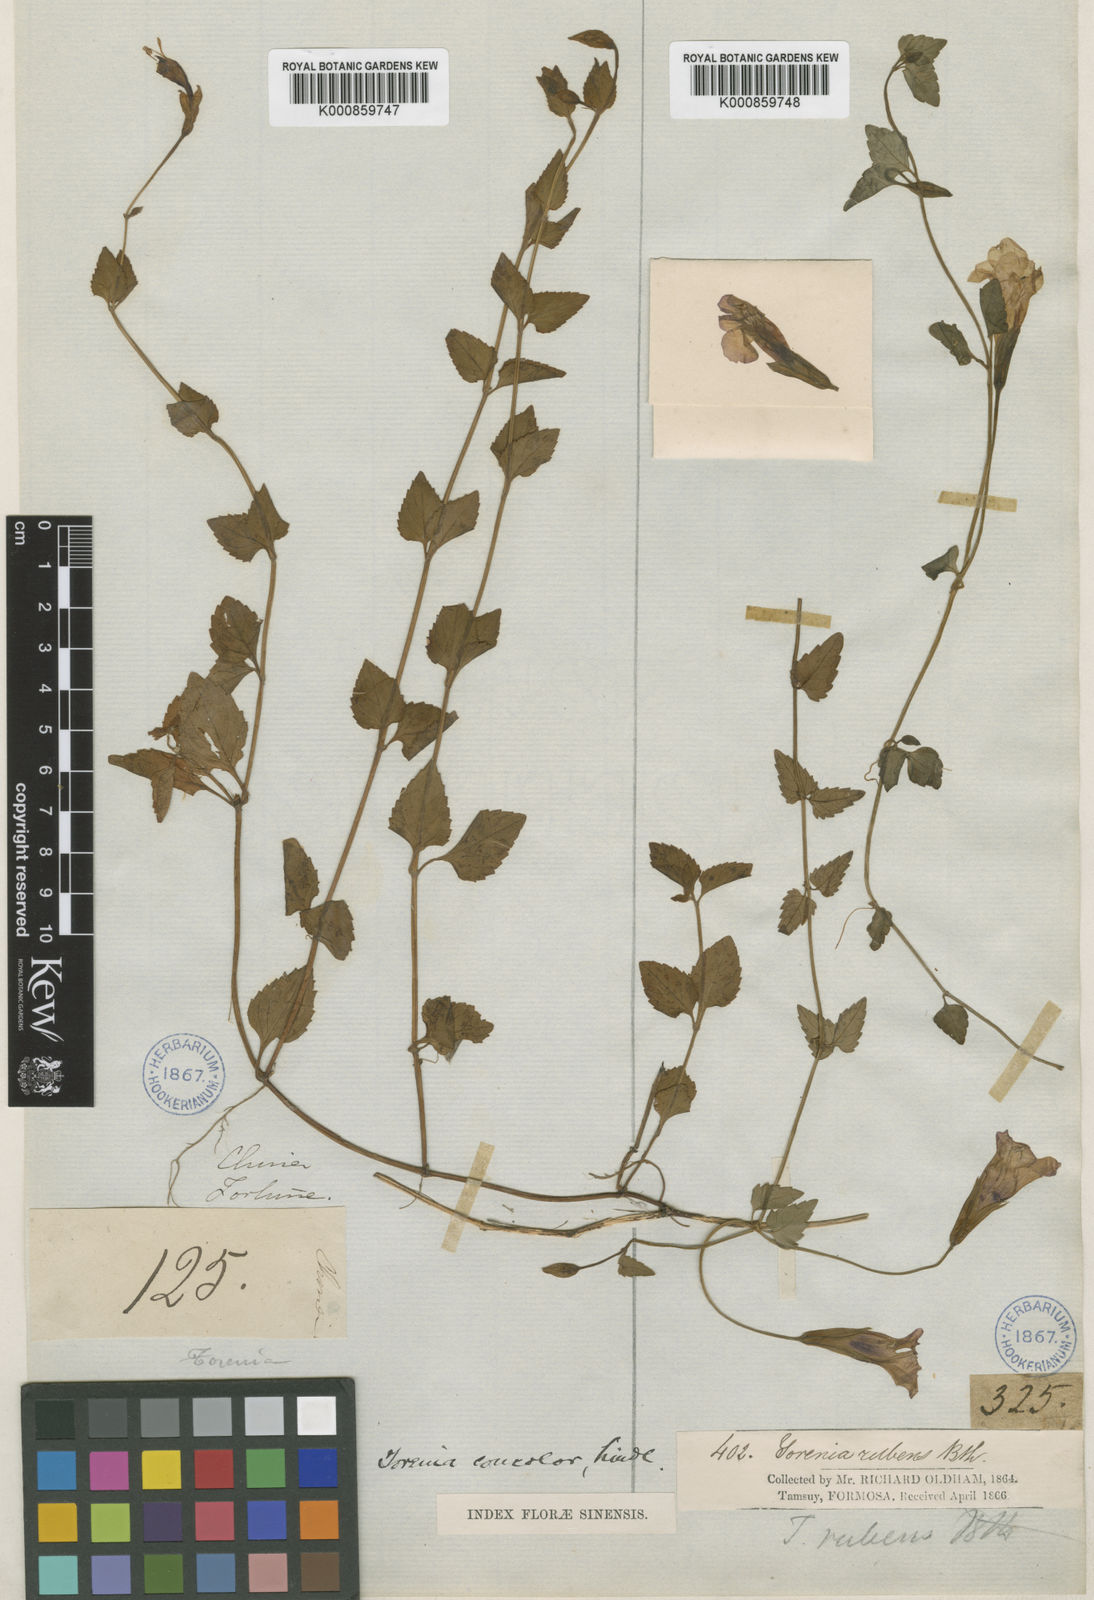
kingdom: Plantae
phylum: Tracheophyta
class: Magnoliopsida
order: Lamiales
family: Linderniaceae
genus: Torenia
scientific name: Torenia concolor
